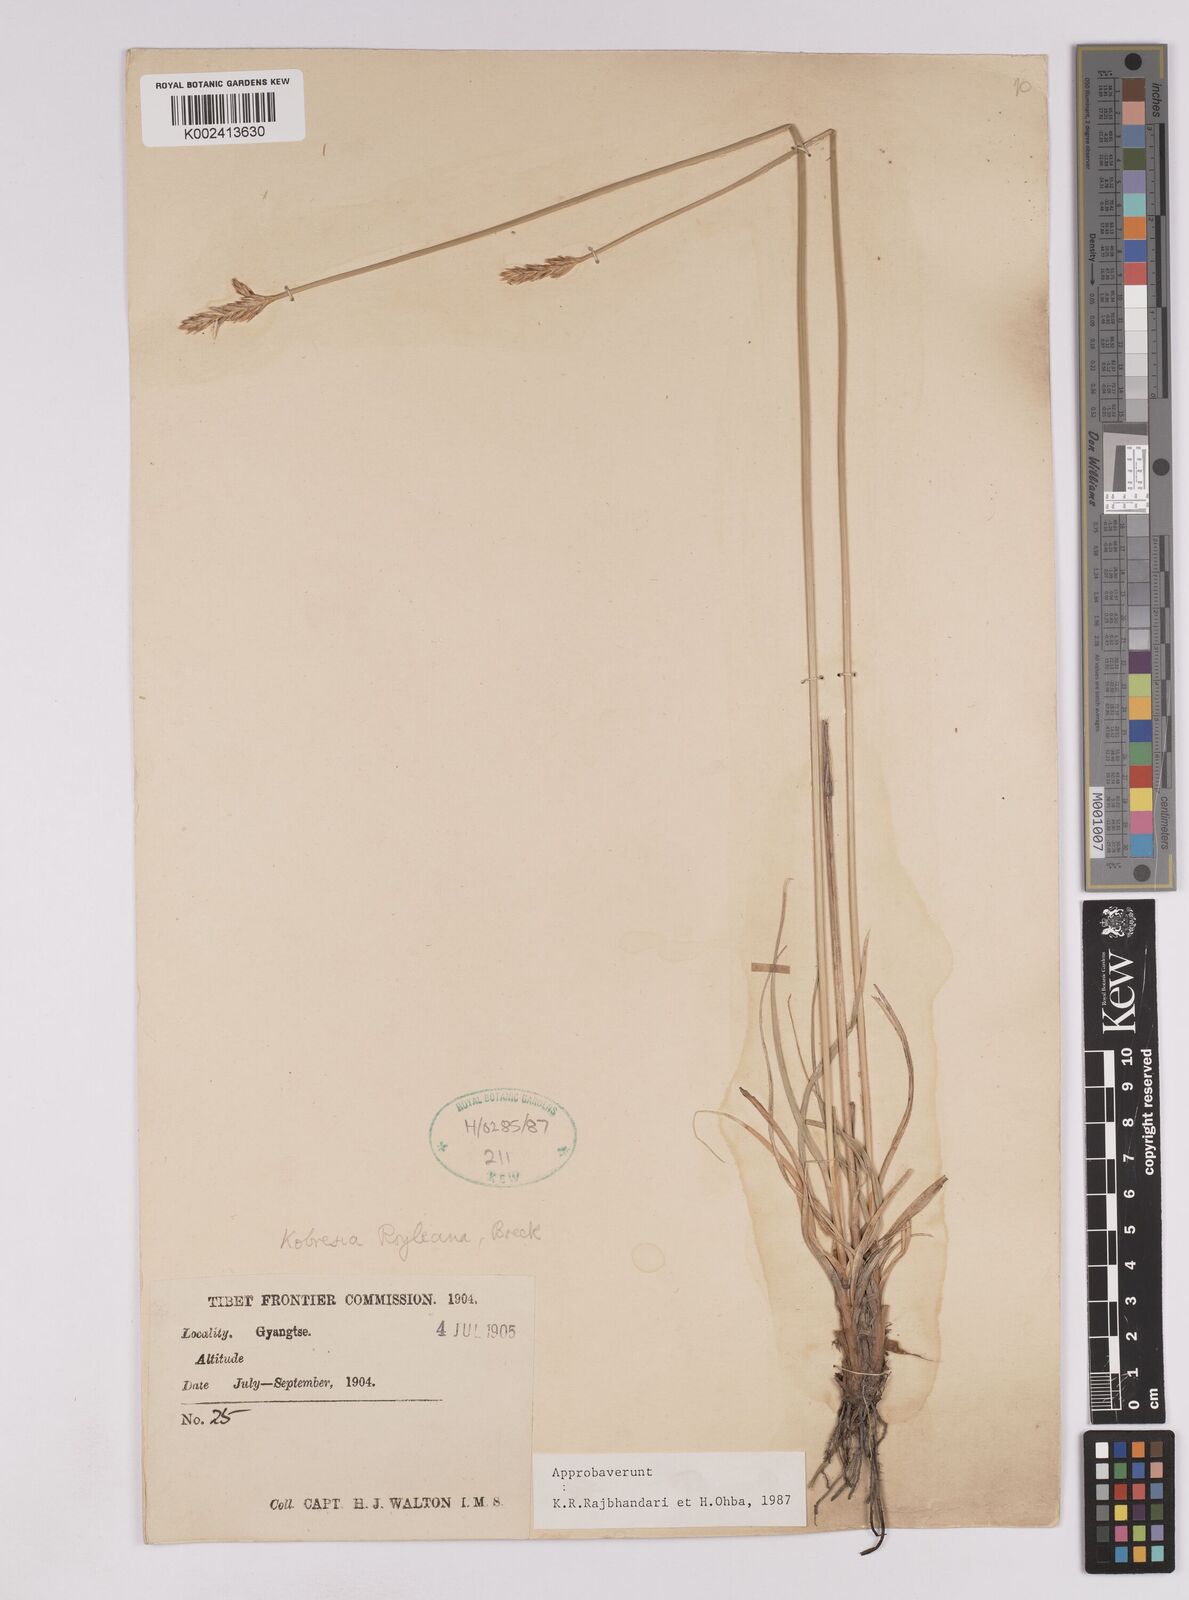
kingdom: Plantae
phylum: Tracheophyta
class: Liliopsida
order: Poales
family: Cyperaceae
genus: Carex
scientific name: Carex kokanica
